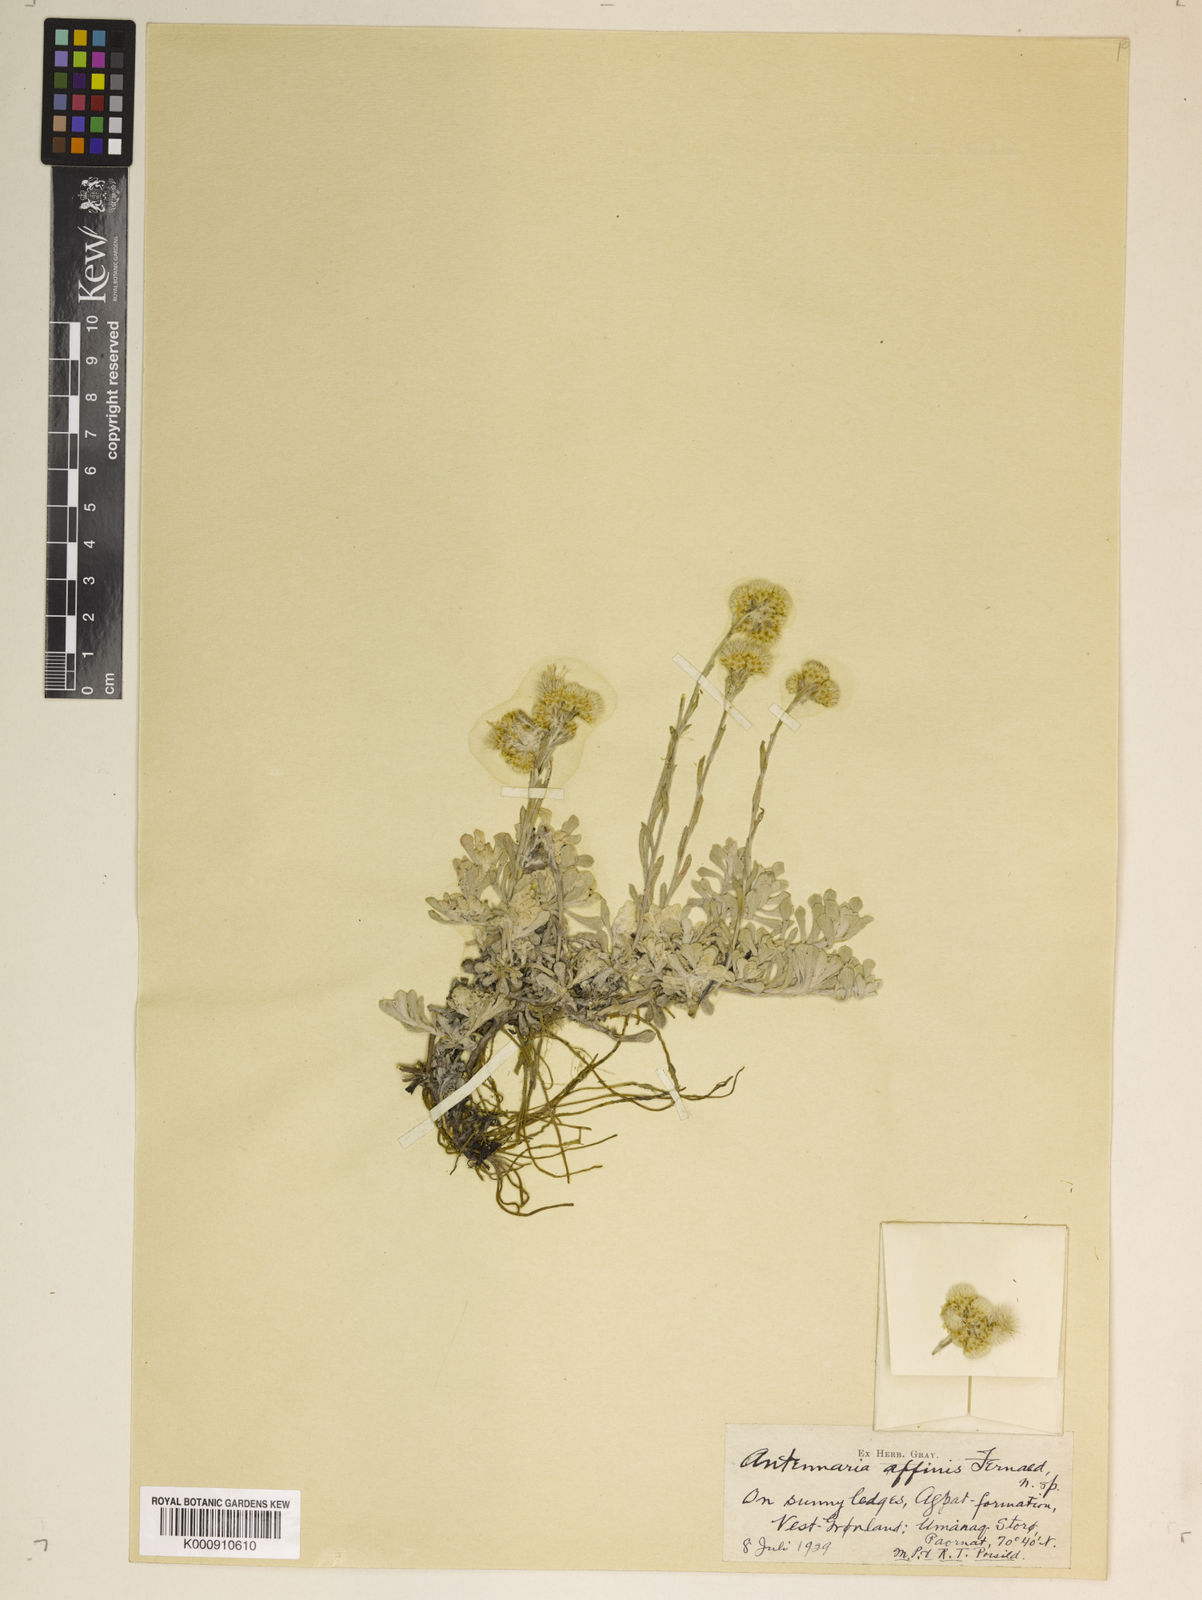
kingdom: Plantae
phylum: Tracheophyta
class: Magnoliopsida
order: Asterales
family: Asteraceae
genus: Antennaria
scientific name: Antennaria rosea
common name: Rosy pussytoes
